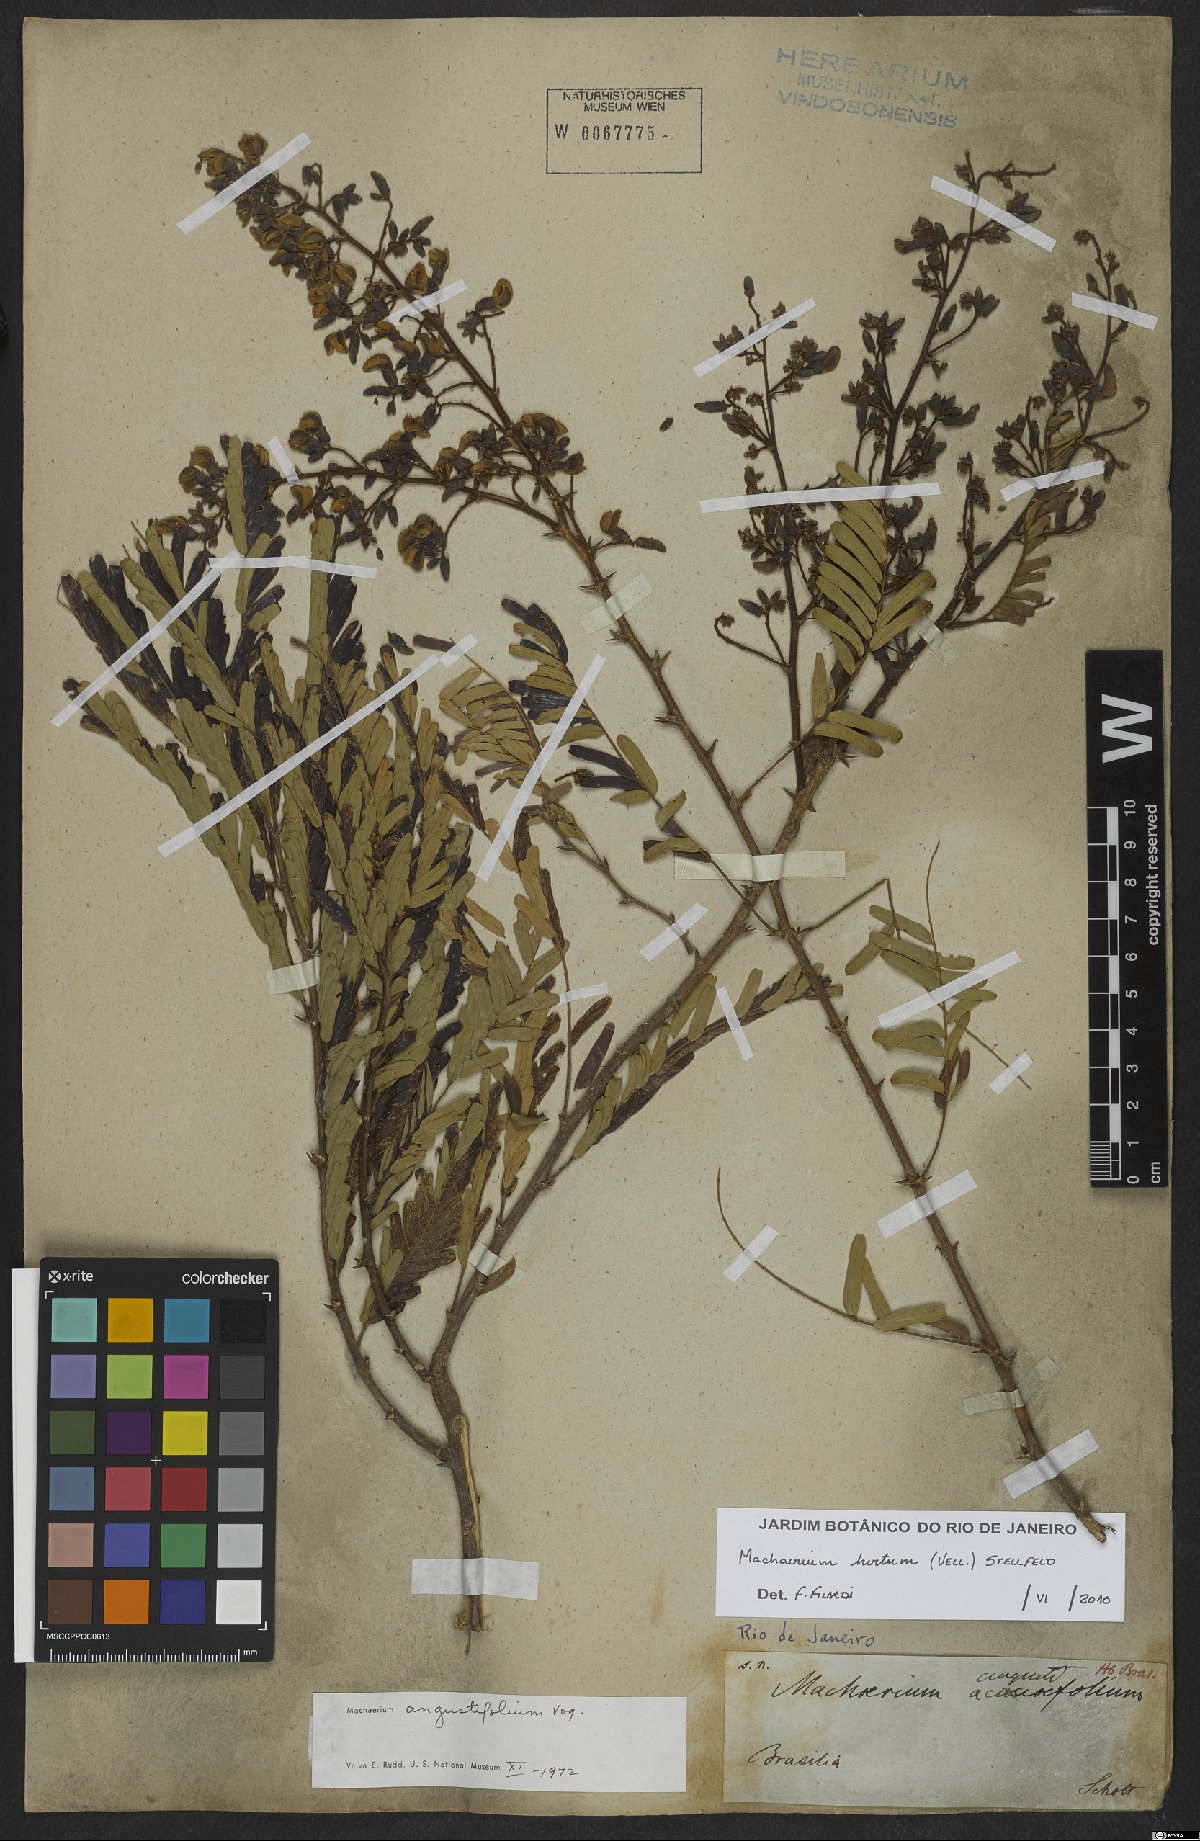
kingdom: Plantae
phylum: Tracheophyta
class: Magnoliopsida
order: Fabales
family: Fabaceae
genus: Machaerium
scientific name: Machaerium hirtum
